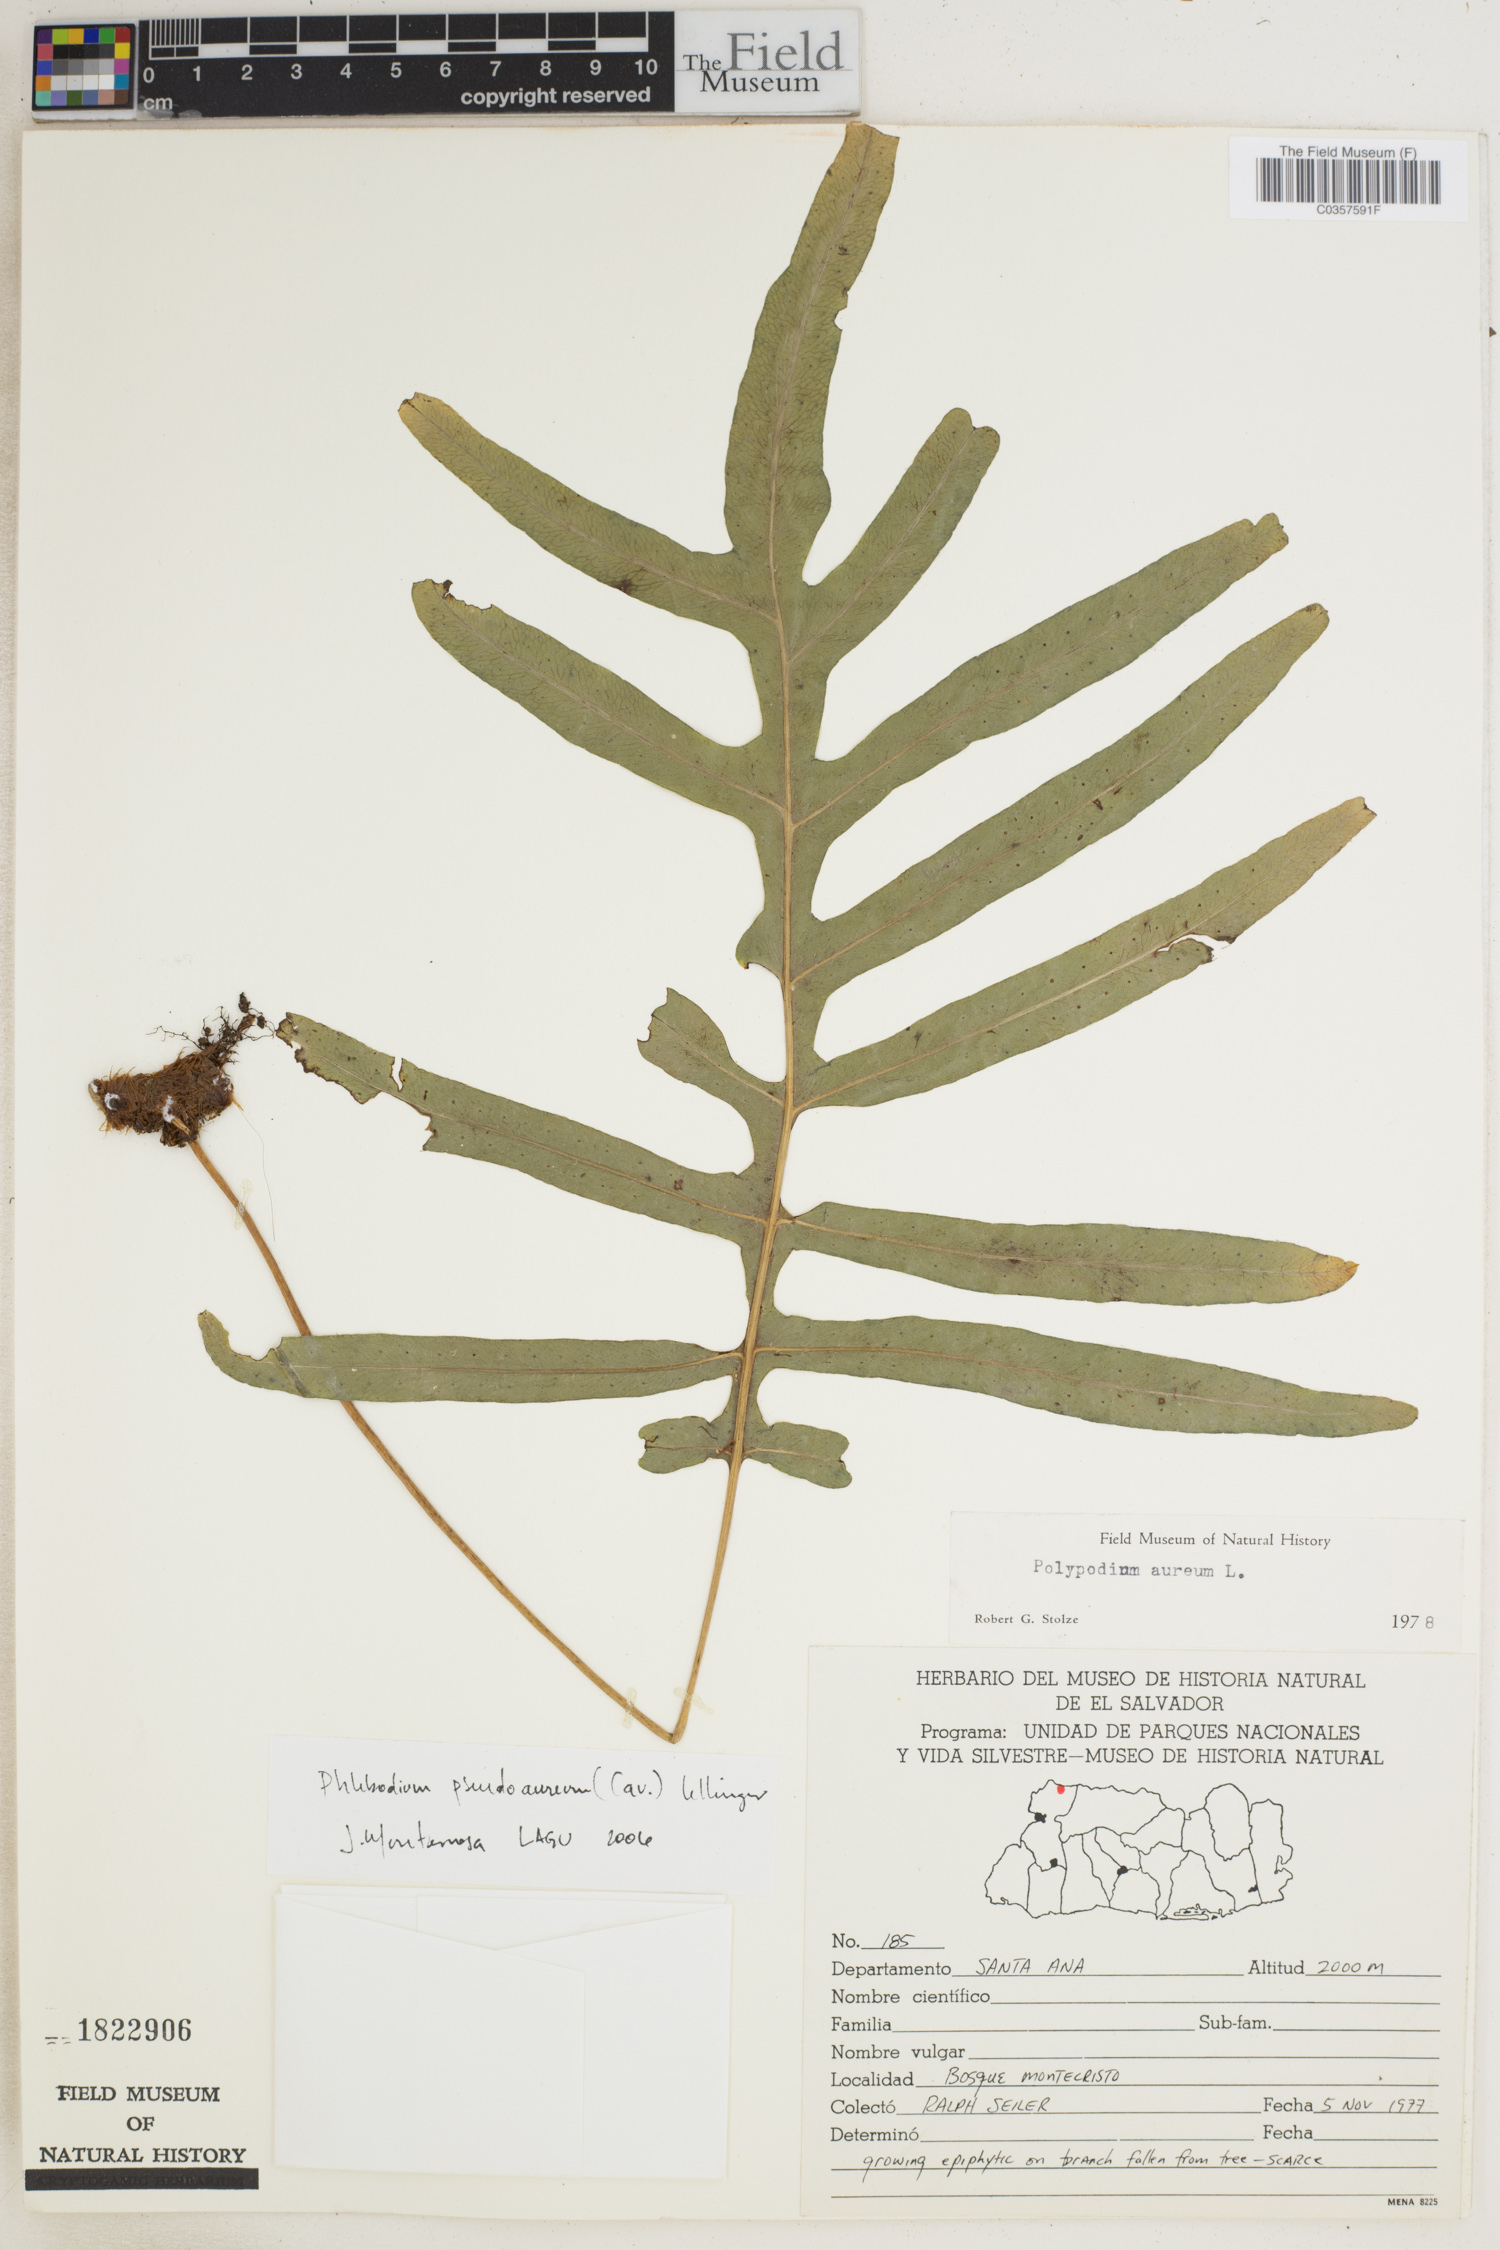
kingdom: Plantae
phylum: Tracheophyta
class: Polypodiopsida
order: Polypodiales
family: Polypodiaceae
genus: Phlebodium
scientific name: Phlebodium pseudoaureum
